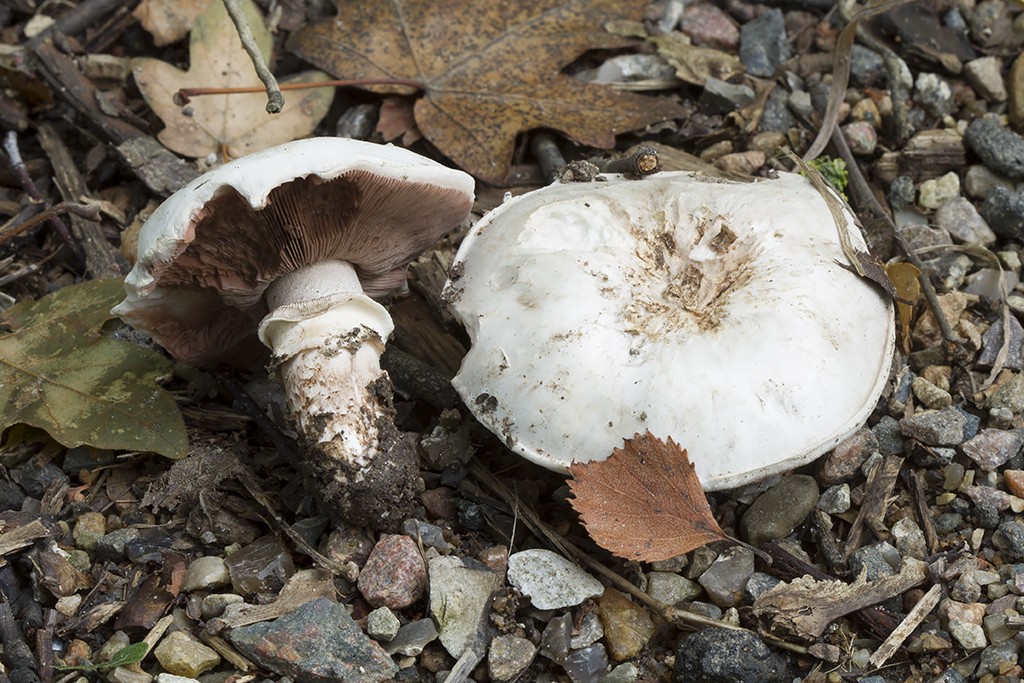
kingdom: Fungi
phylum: Basidiomycota
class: Agaricomycetes
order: Agaricales
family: Agaricaceae
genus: Agaricus
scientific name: Agaricus bitorquis
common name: vej-champignon
